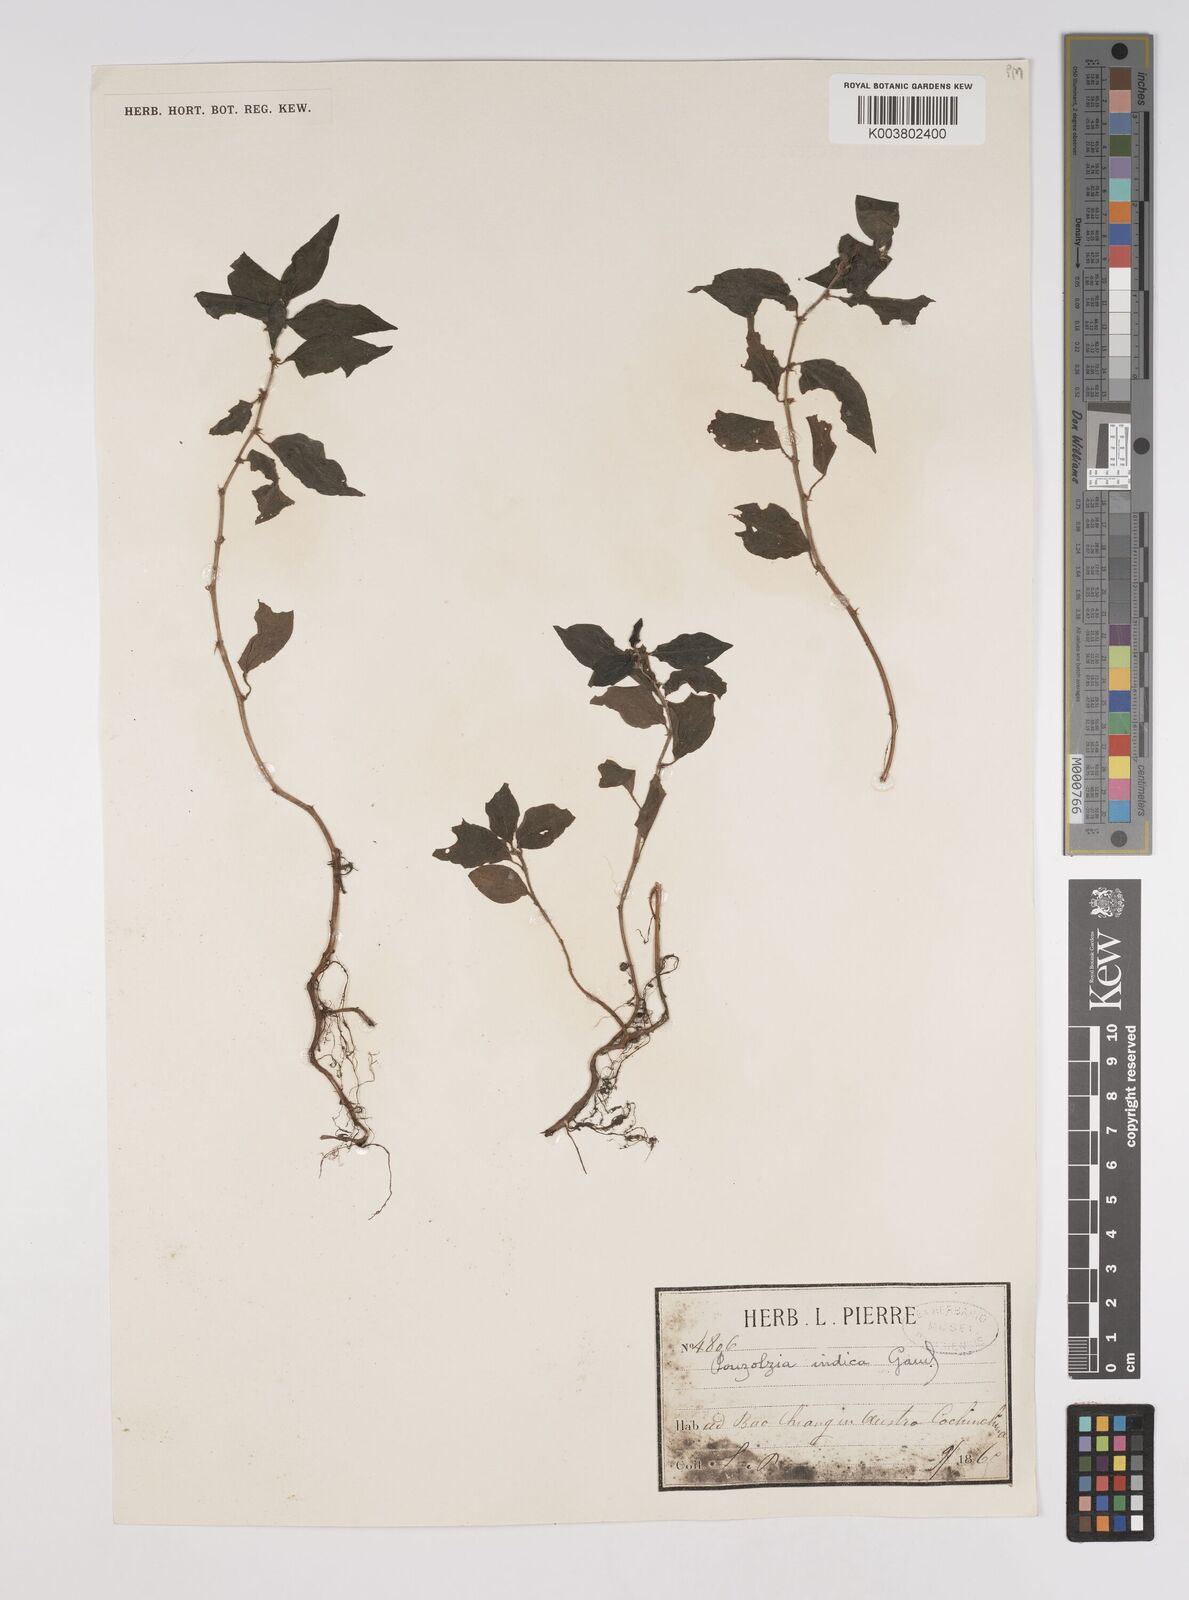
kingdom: Plantae
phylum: Tracheophyta
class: Magnoliopsida
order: Rosales
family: Urticaceae
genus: Pouzolzia
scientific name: Pouzolzia zeylanica
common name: Graceful pouzolzsbush
